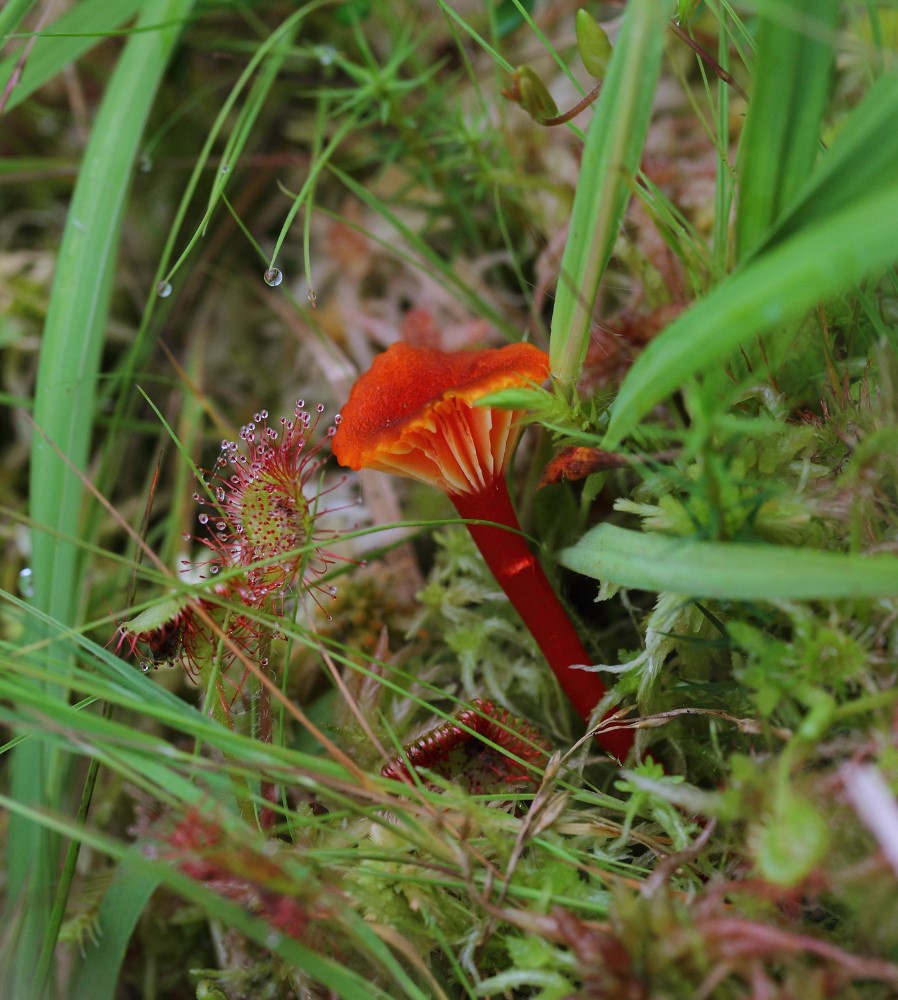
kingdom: Fungi
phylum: Basidiomycota
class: Agaricomycetes
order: Agaricales
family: Hygrophoraceae
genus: Hygrocybe
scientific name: Hygrocybe coccineocrenata
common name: tørvemos-vokshat
